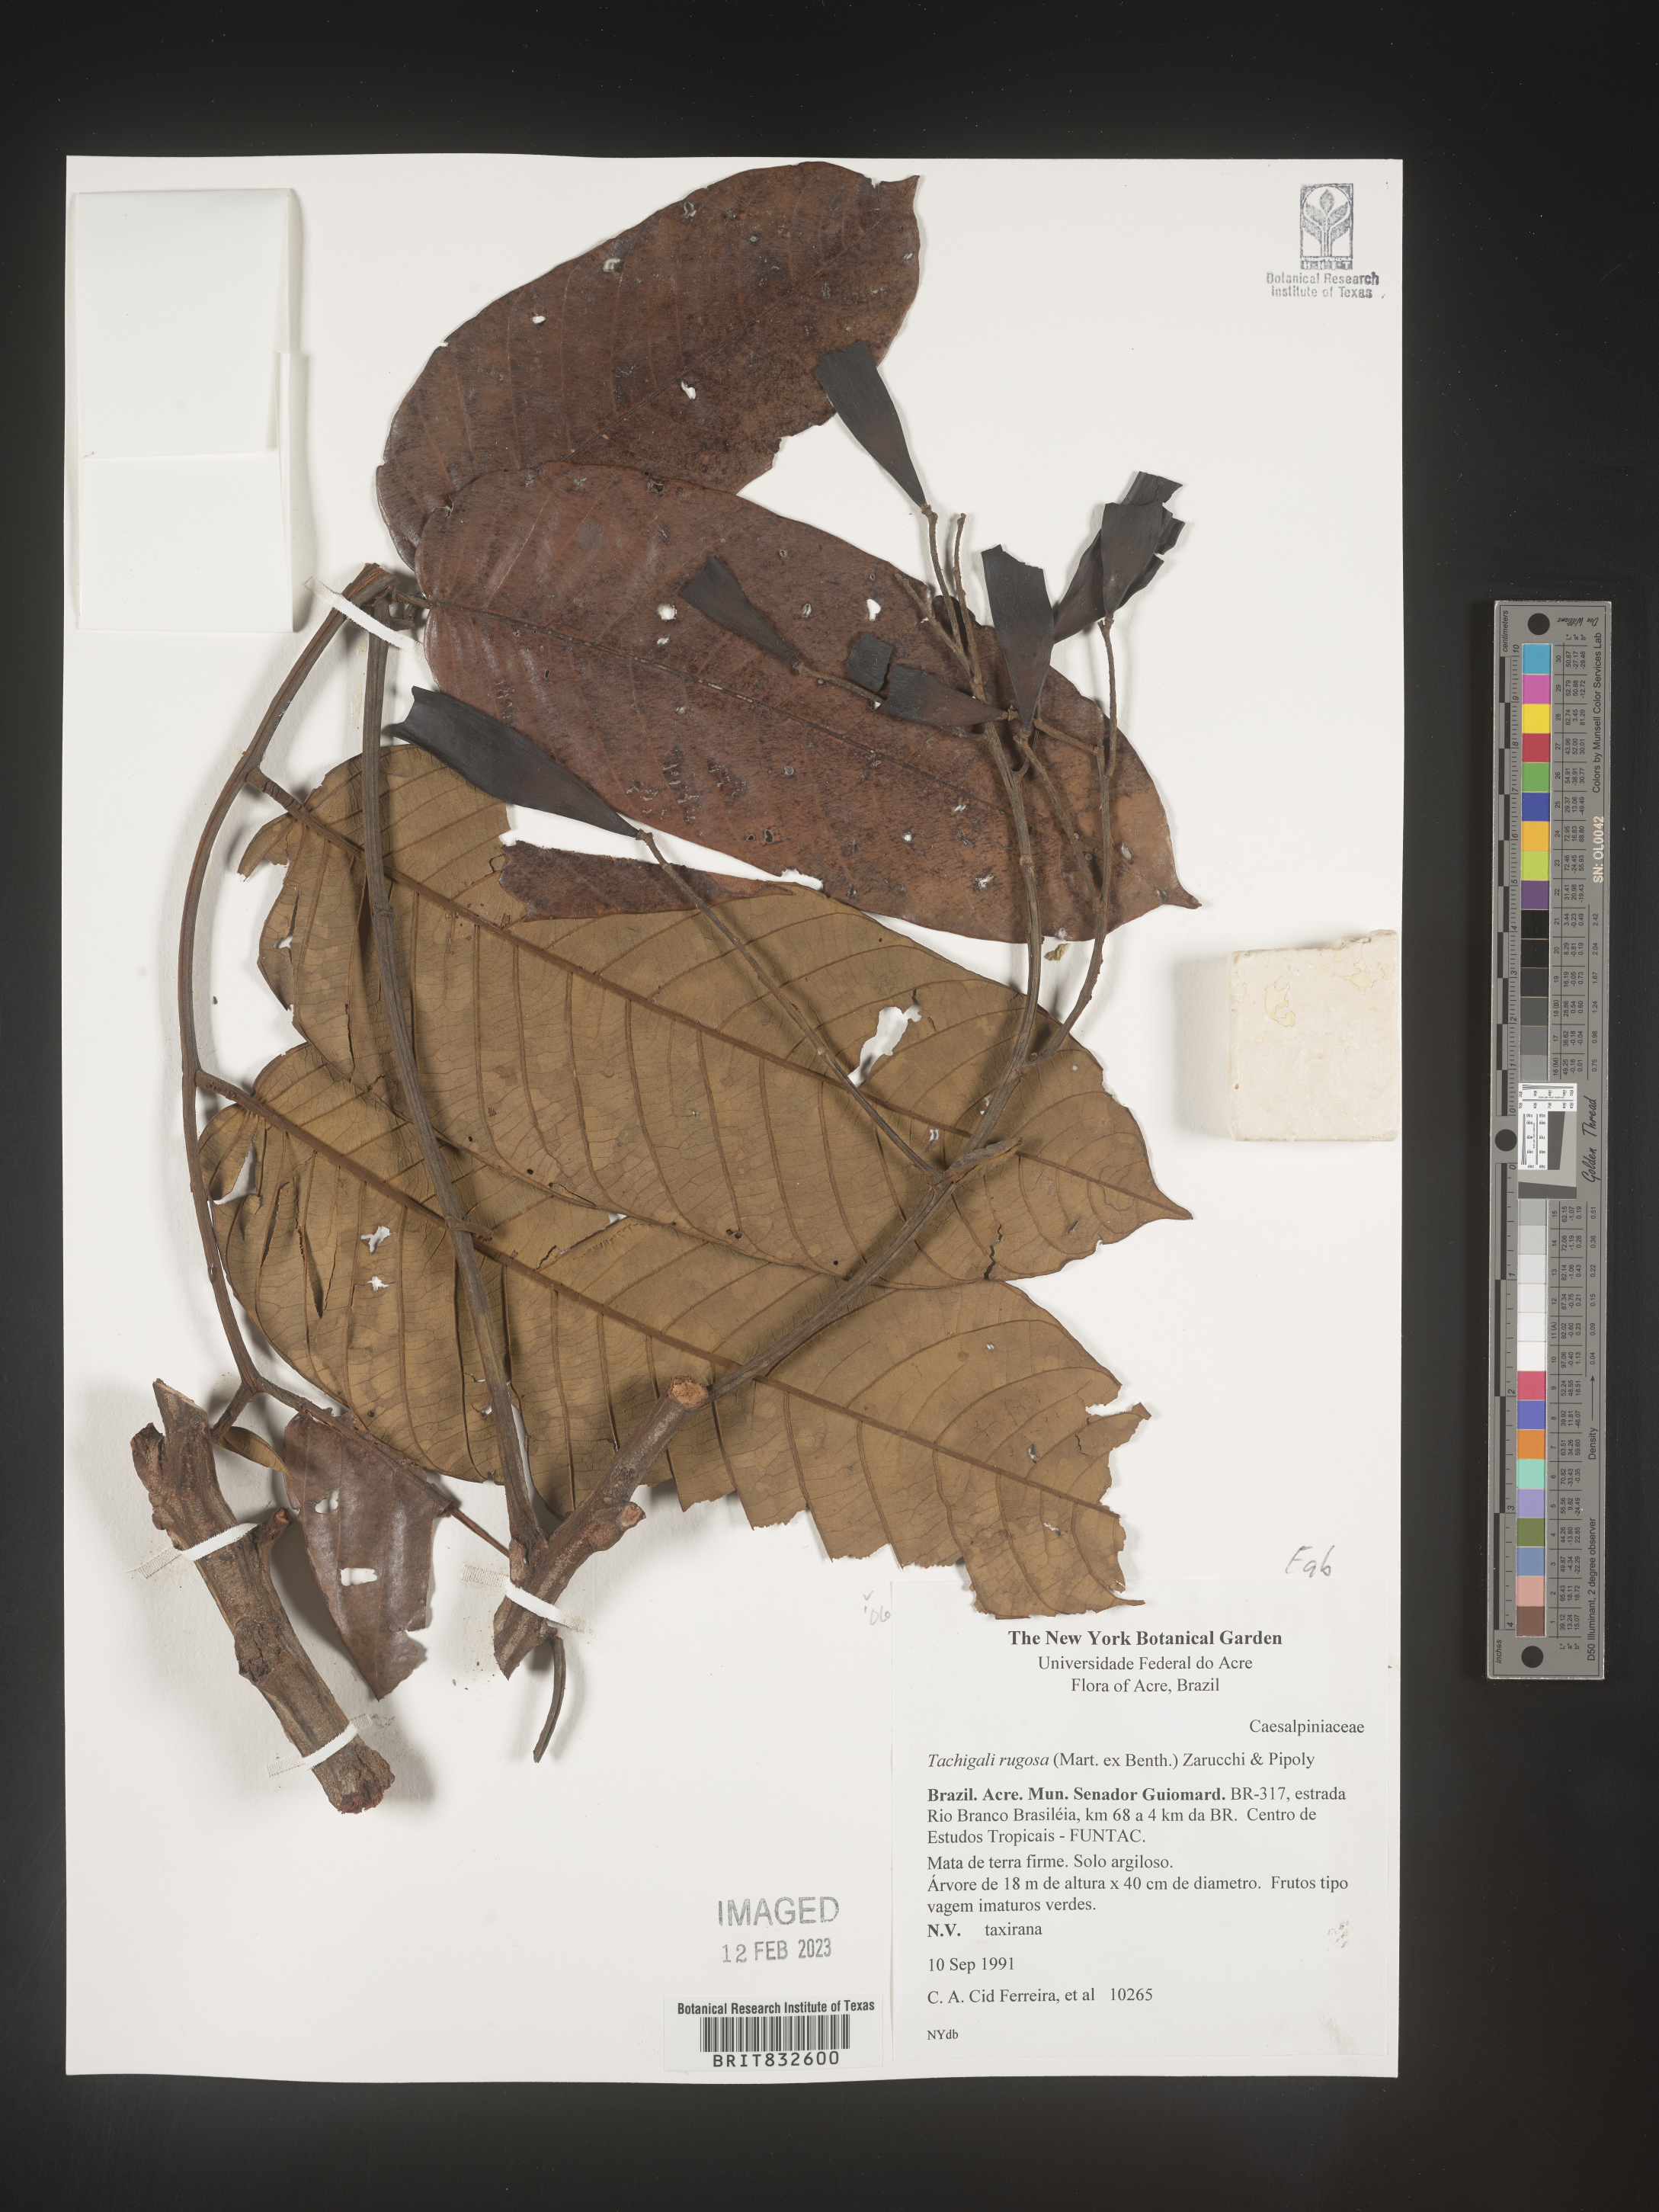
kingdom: Plantae
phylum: Tracheophyta
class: Magnoliopsida
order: Fabales
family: Fabaceae
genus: Tachigali
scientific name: Tachigali
